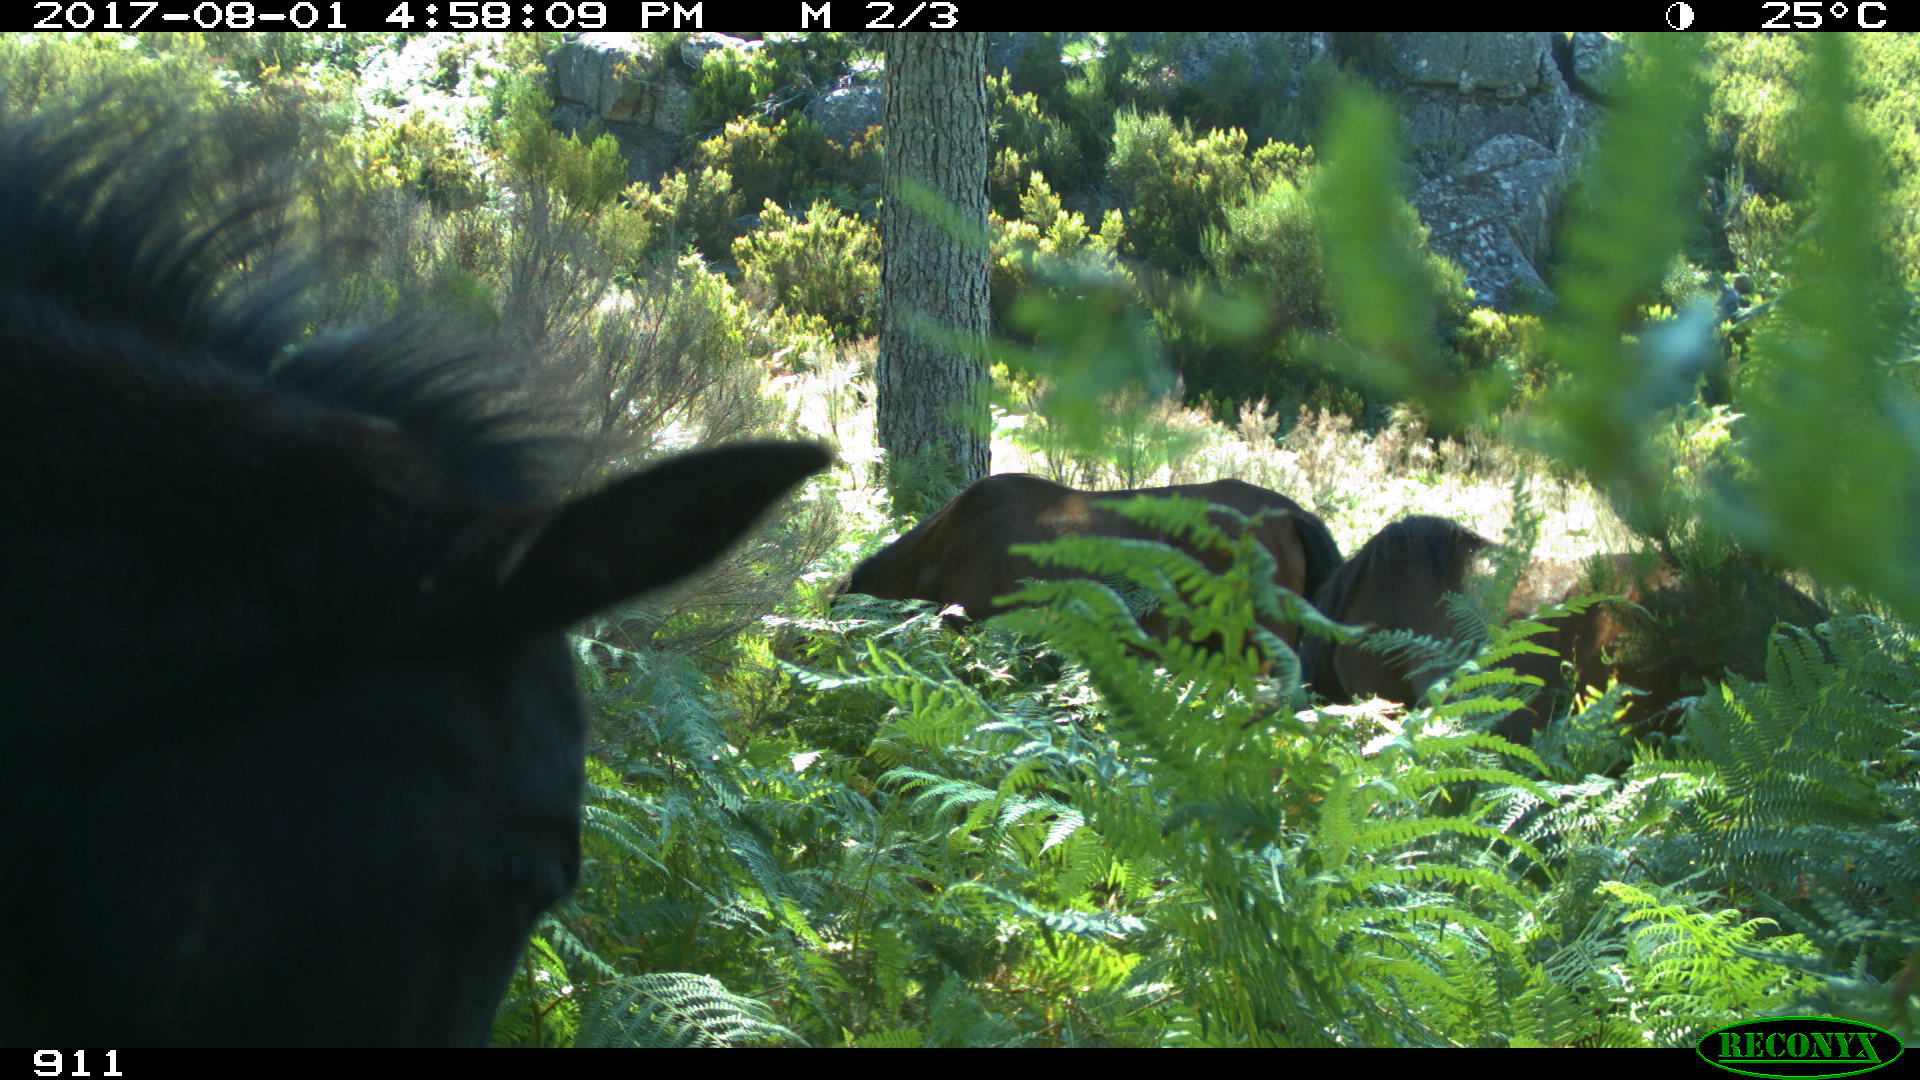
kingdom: Animalia
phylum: Chordata
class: Mammalia
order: Perissodactyla
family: Equidae
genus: Equus
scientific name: Equus caballus
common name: Horse
